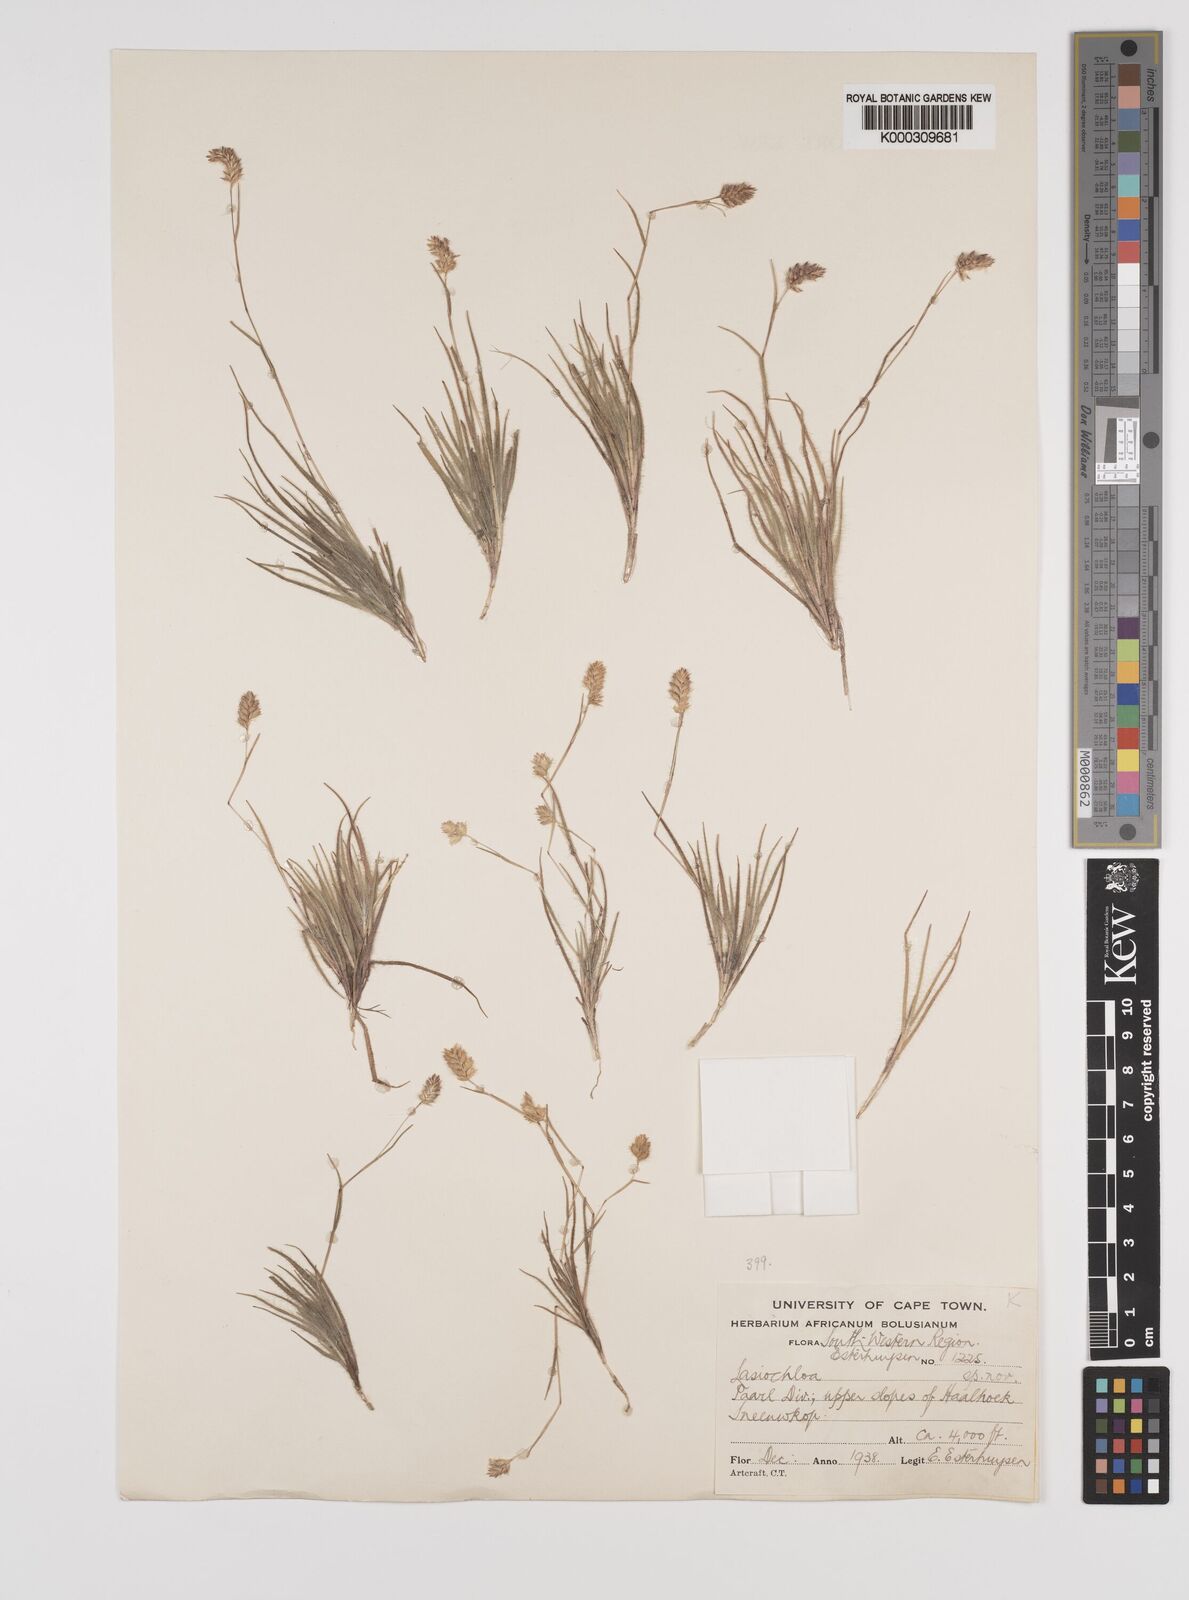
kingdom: Plantae
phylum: Tracheophyta
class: Liliopsida
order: Poales
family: Poaceae
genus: Tribolium
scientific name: Tribolium brachystachyum
